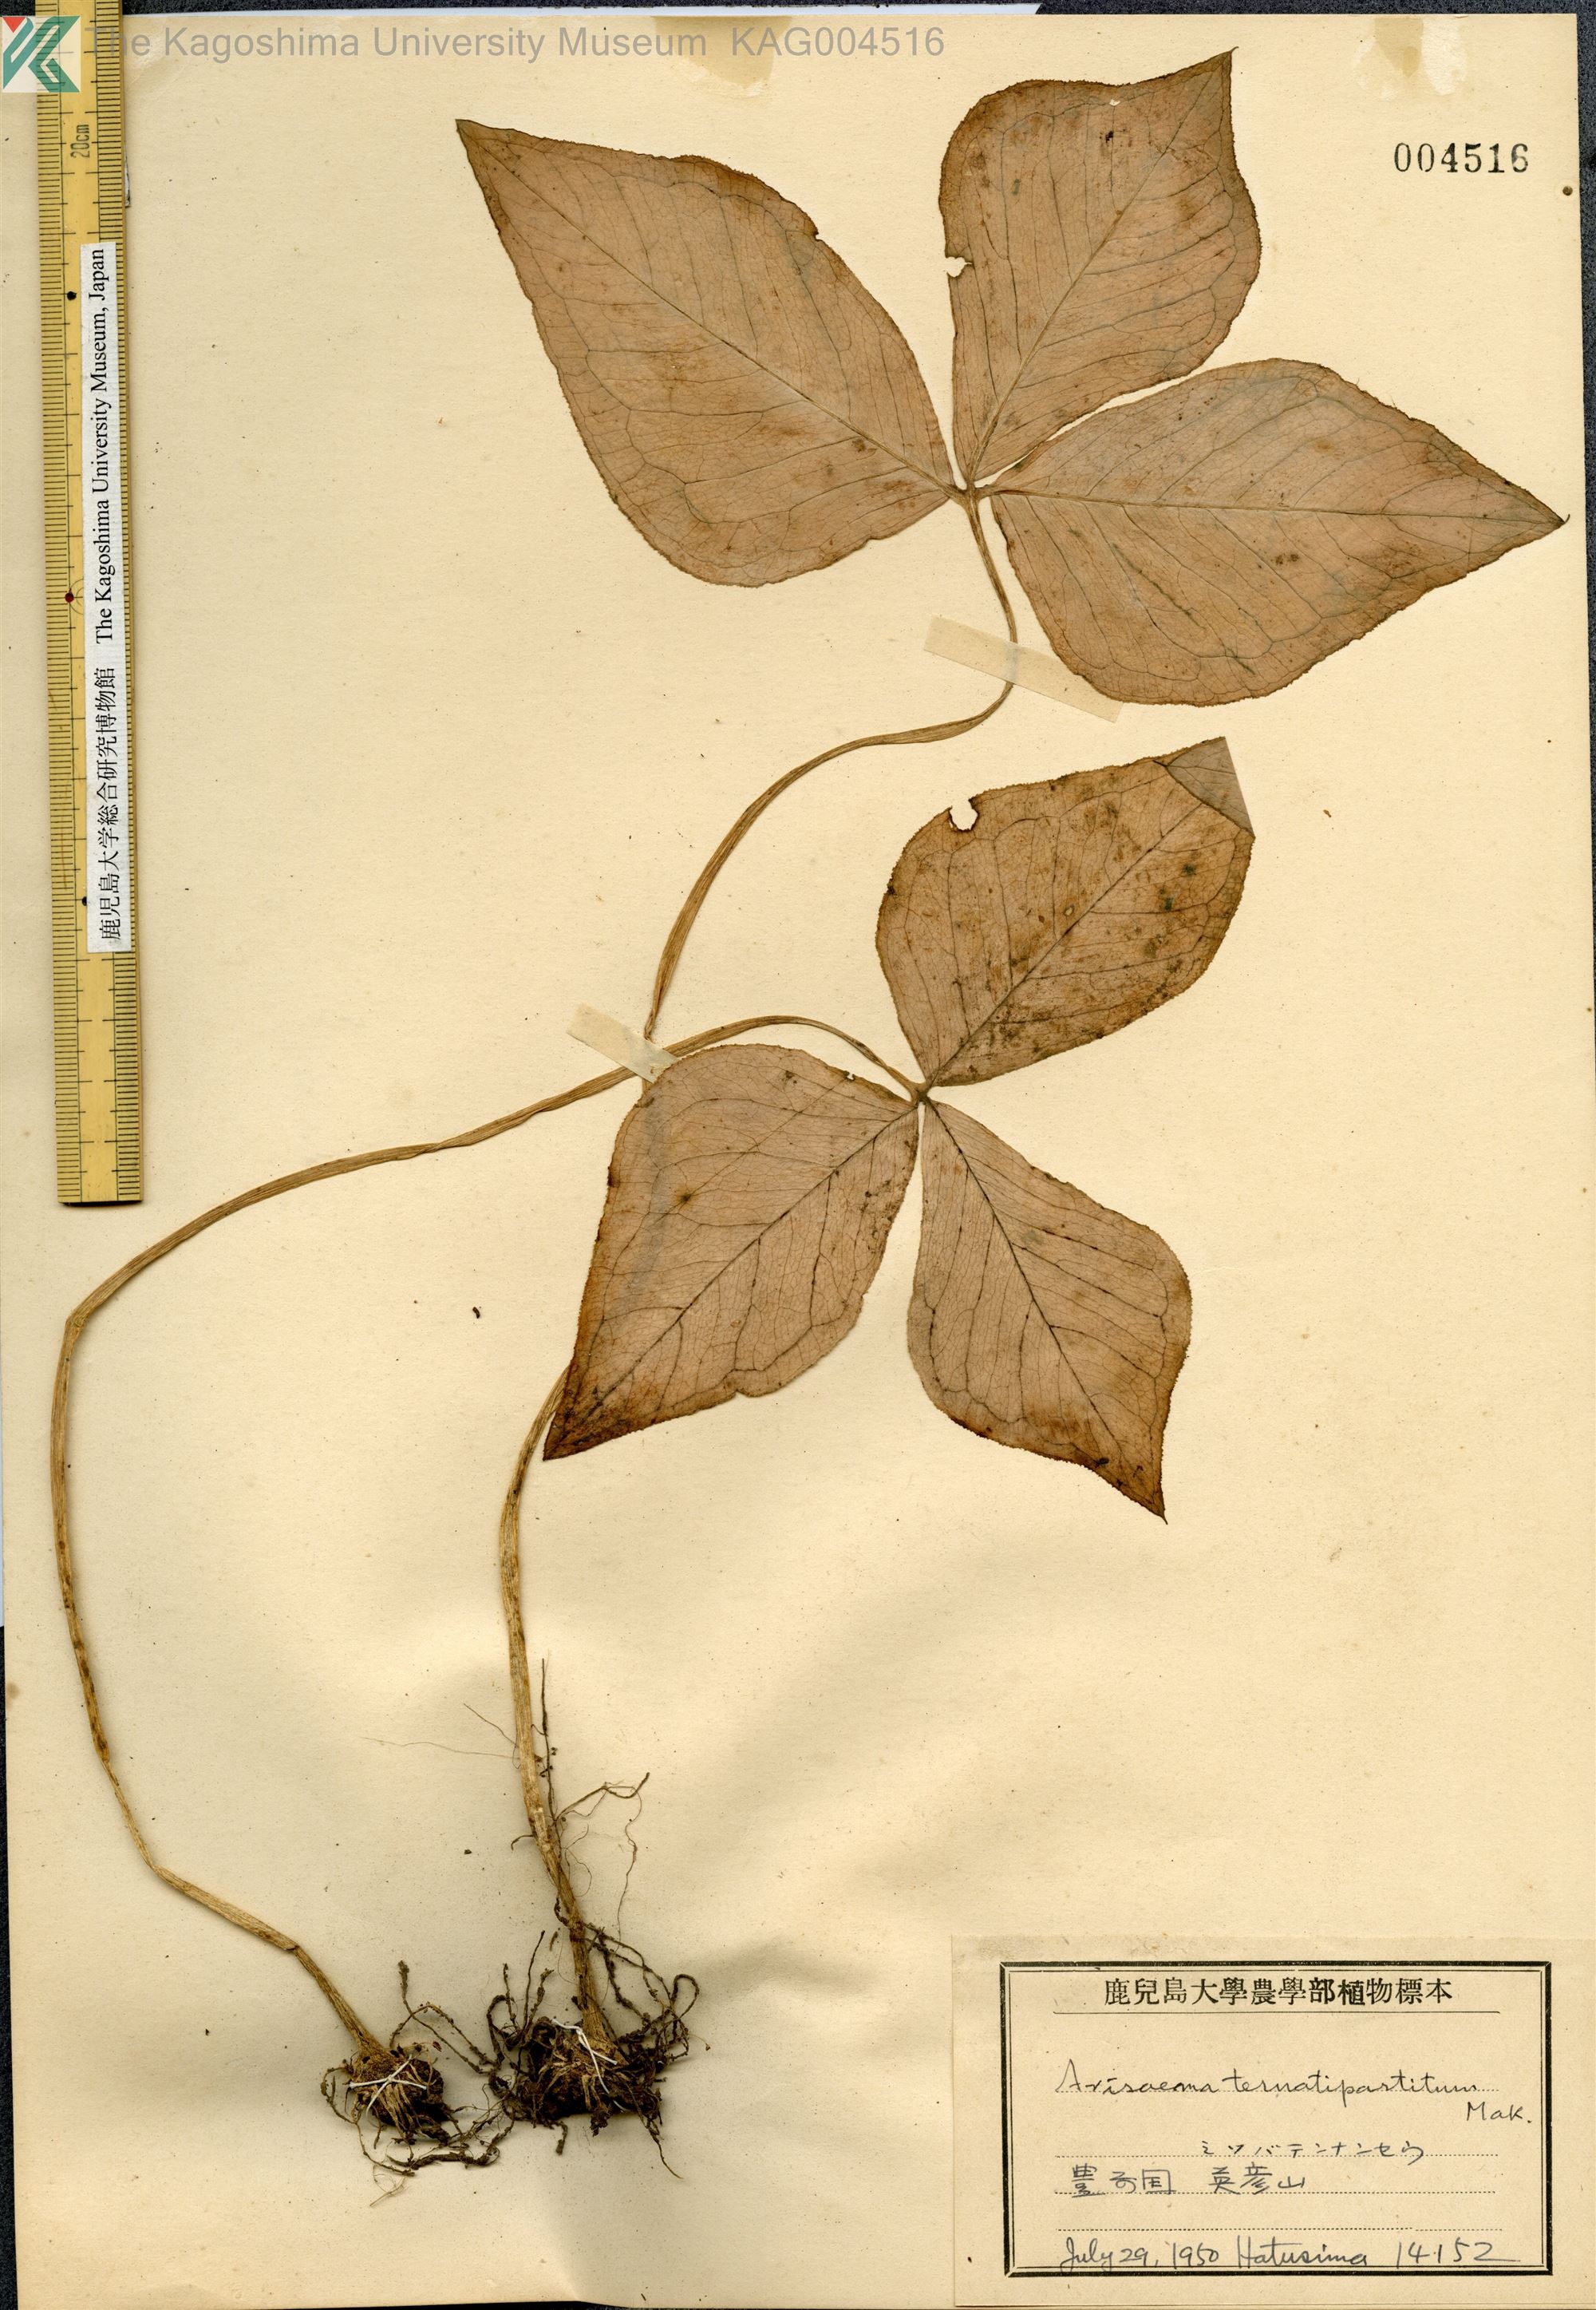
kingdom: Plantae
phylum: Tracheophyta
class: Liliopsida
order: Alismatales
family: Araceae
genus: Arisaema
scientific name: Arisaema ternatipartitum
